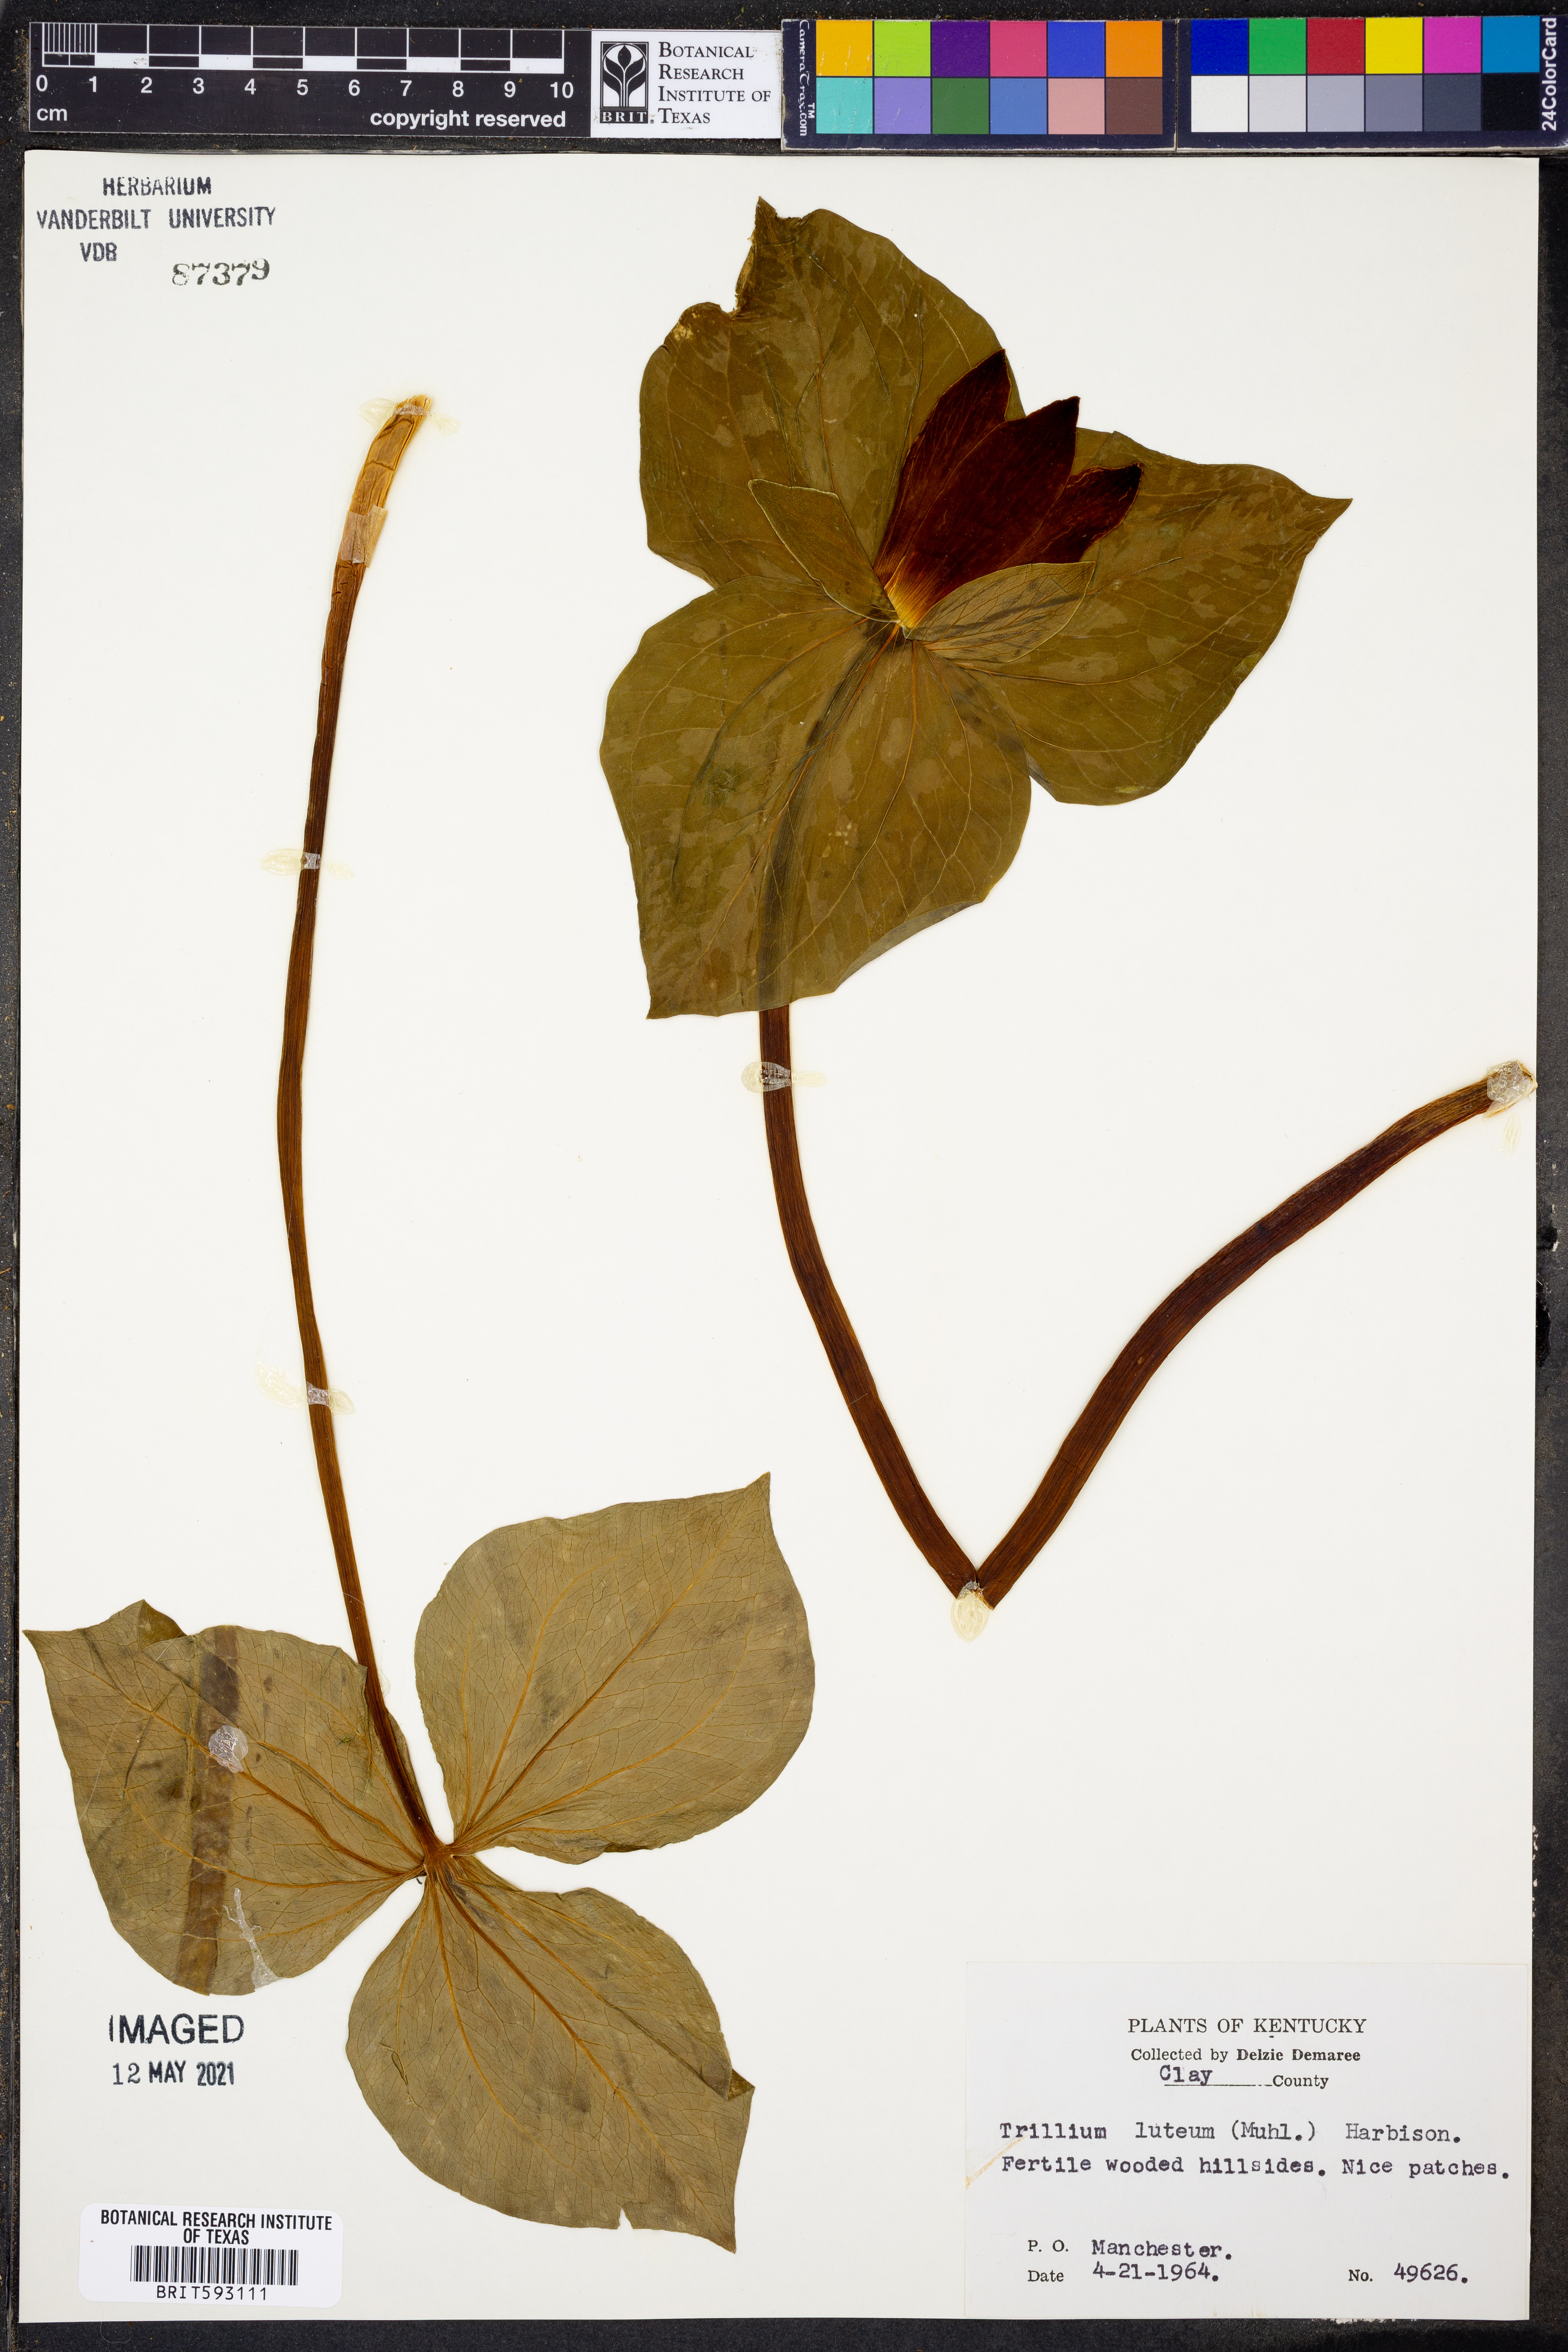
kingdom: Plantae
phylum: Tracheophyta
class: Liliopsida
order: Liliales
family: Melanthiaceae
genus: Trillium
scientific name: Trillium luteum
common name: Wax trillium
